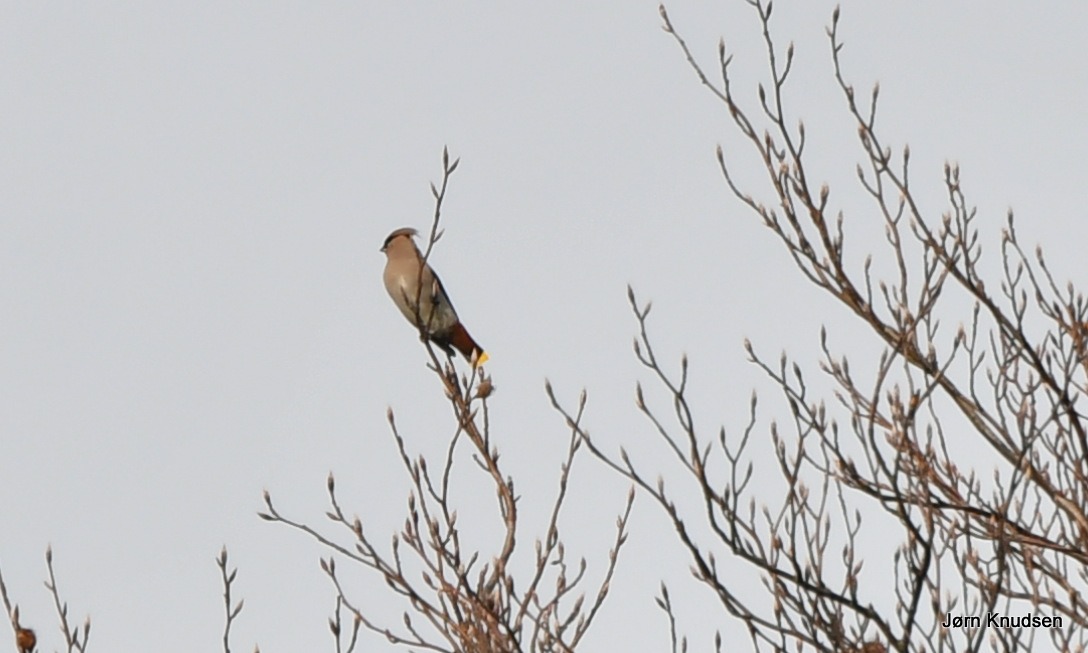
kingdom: Animalia
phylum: Chordata
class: Aves
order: Passeriformes
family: Bombycillidae
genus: Bombycilla
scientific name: Bombycilla garrulus
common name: Silkehale
